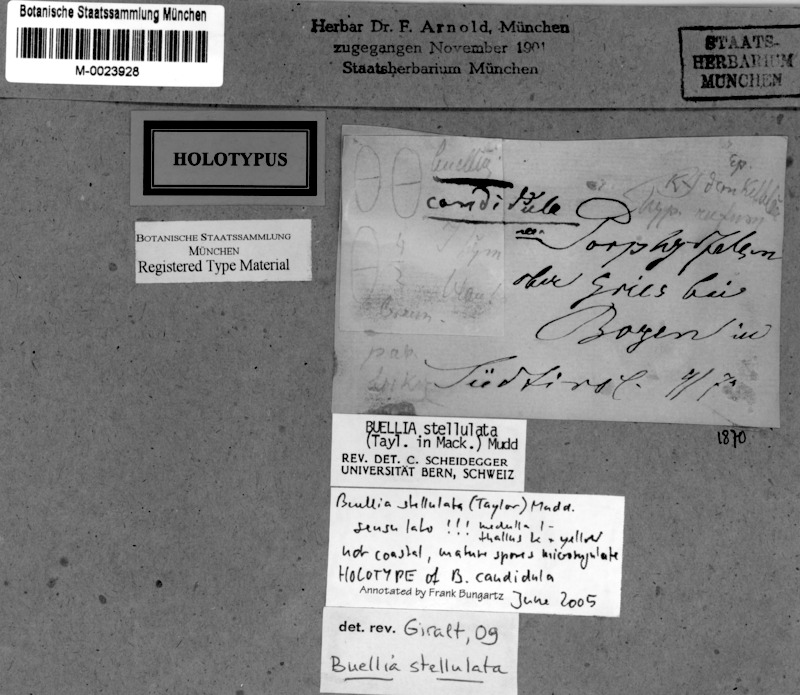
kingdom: Fungi
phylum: Ascomycota
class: Lecanoromycetes
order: Caliciales
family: Caliciaceae
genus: Buellia
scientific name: Buellia stellulata
